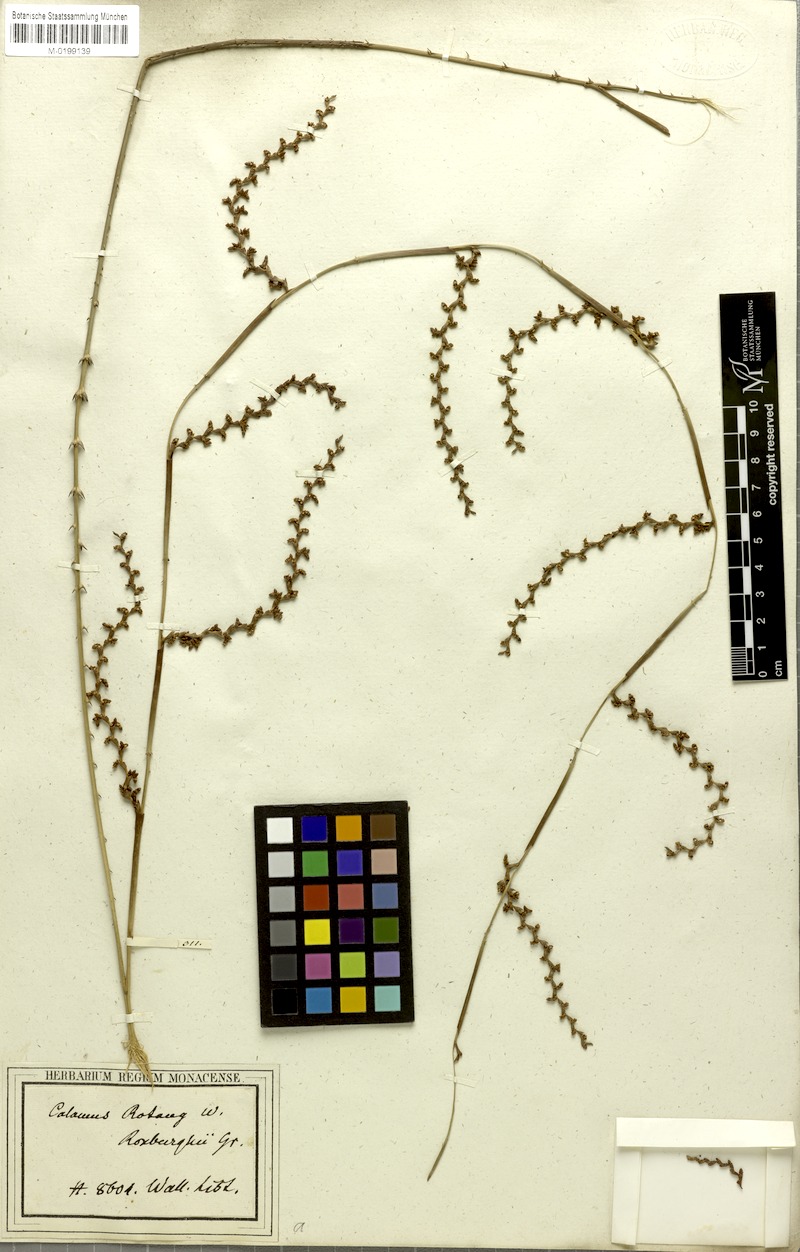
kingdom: Plantae
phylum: Tracheophyta
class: Liliopsida
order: Arecales
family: Arecaceae
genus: Calamus
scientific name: Calamus rotang
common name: Rattan cane
